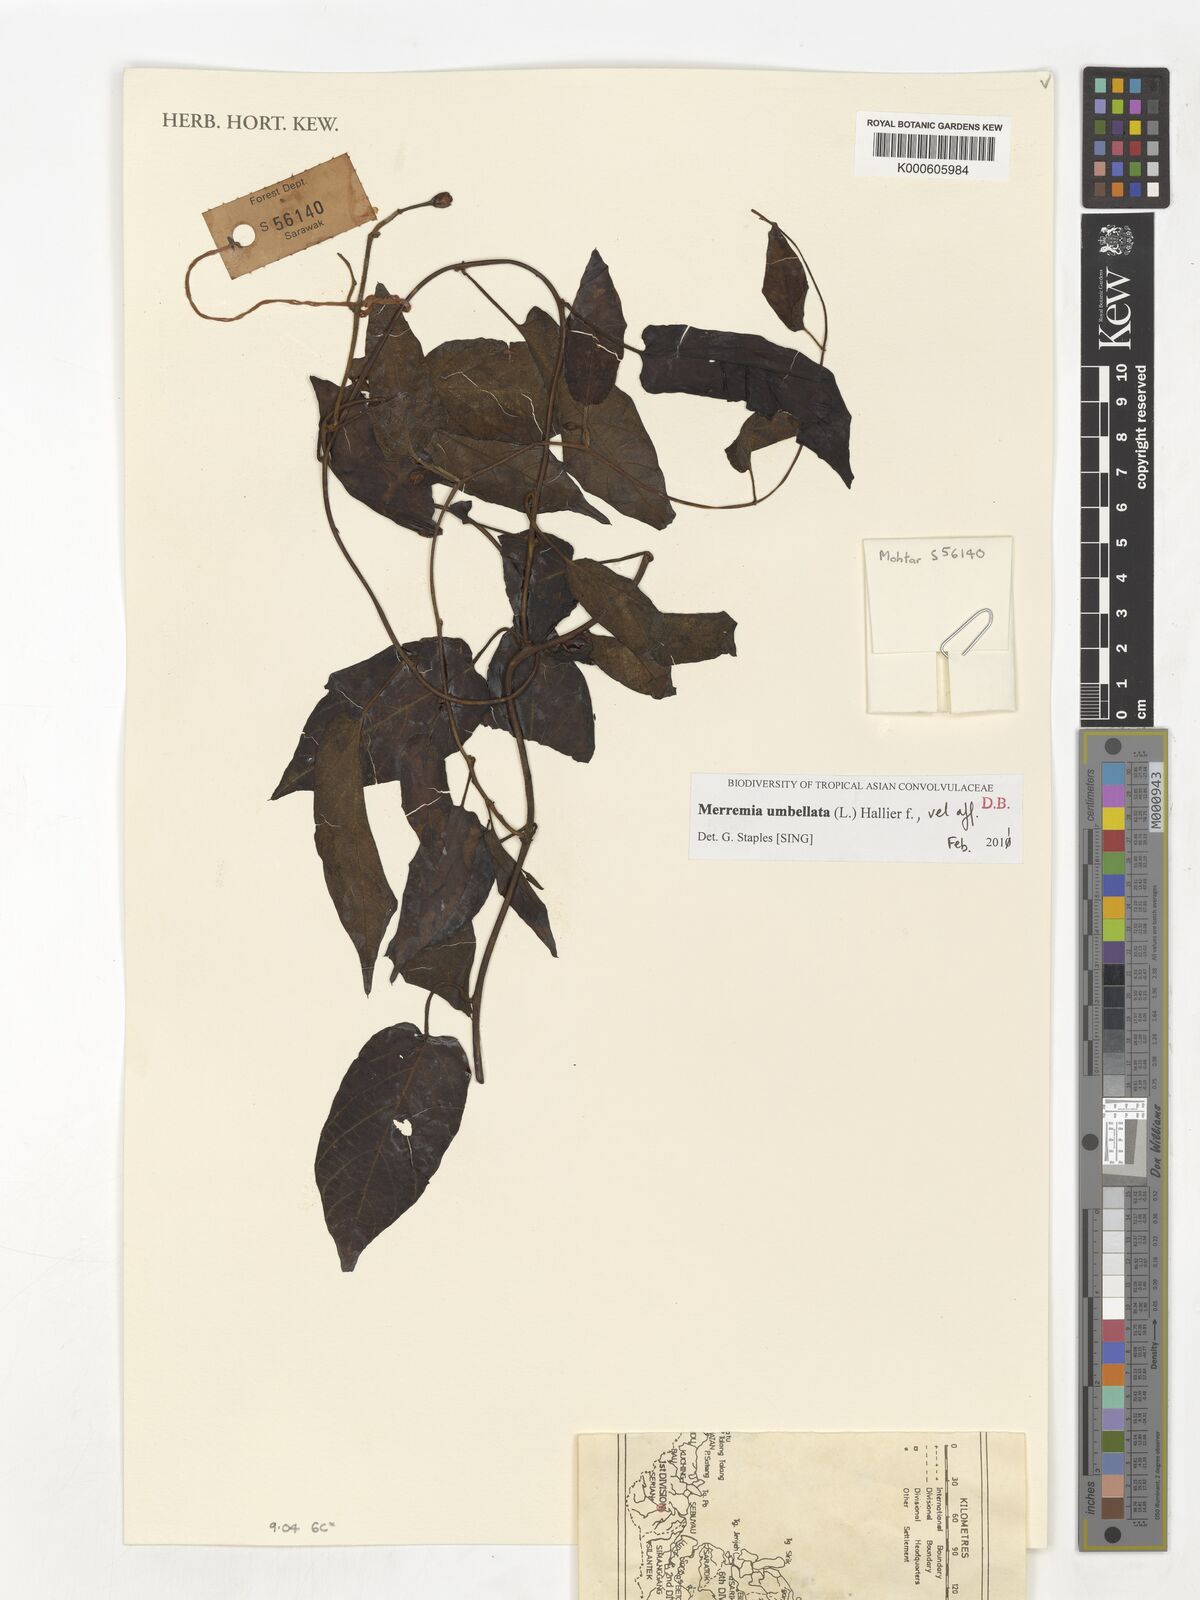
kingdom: Plantae
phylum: Tracheophyta
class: Magnoliopsida
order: Solanales
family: Convolvulaceae
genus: Merremia
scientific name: Merremia
